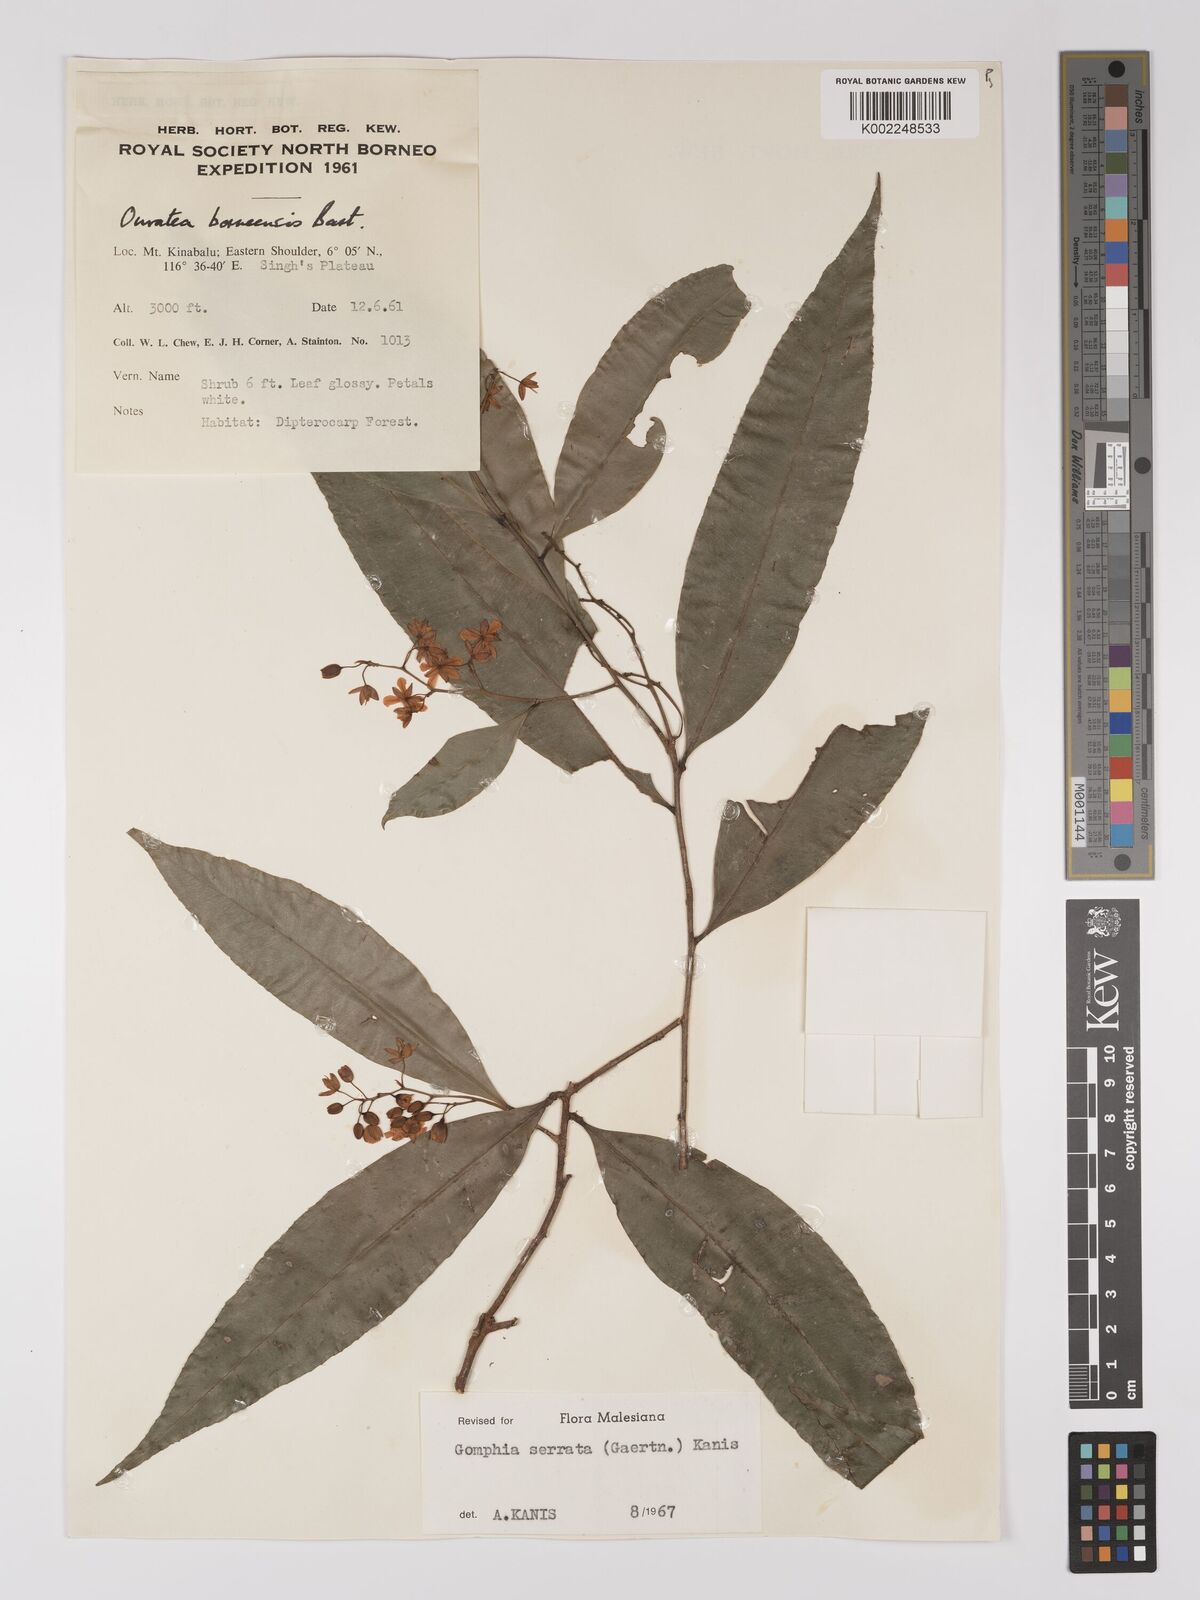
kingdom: Plantae
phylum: Tracheophyta
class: Magnoliopsida
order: Malpighiales
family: Ochnaceae
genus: Gomphia
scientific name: Gomphia serrata
